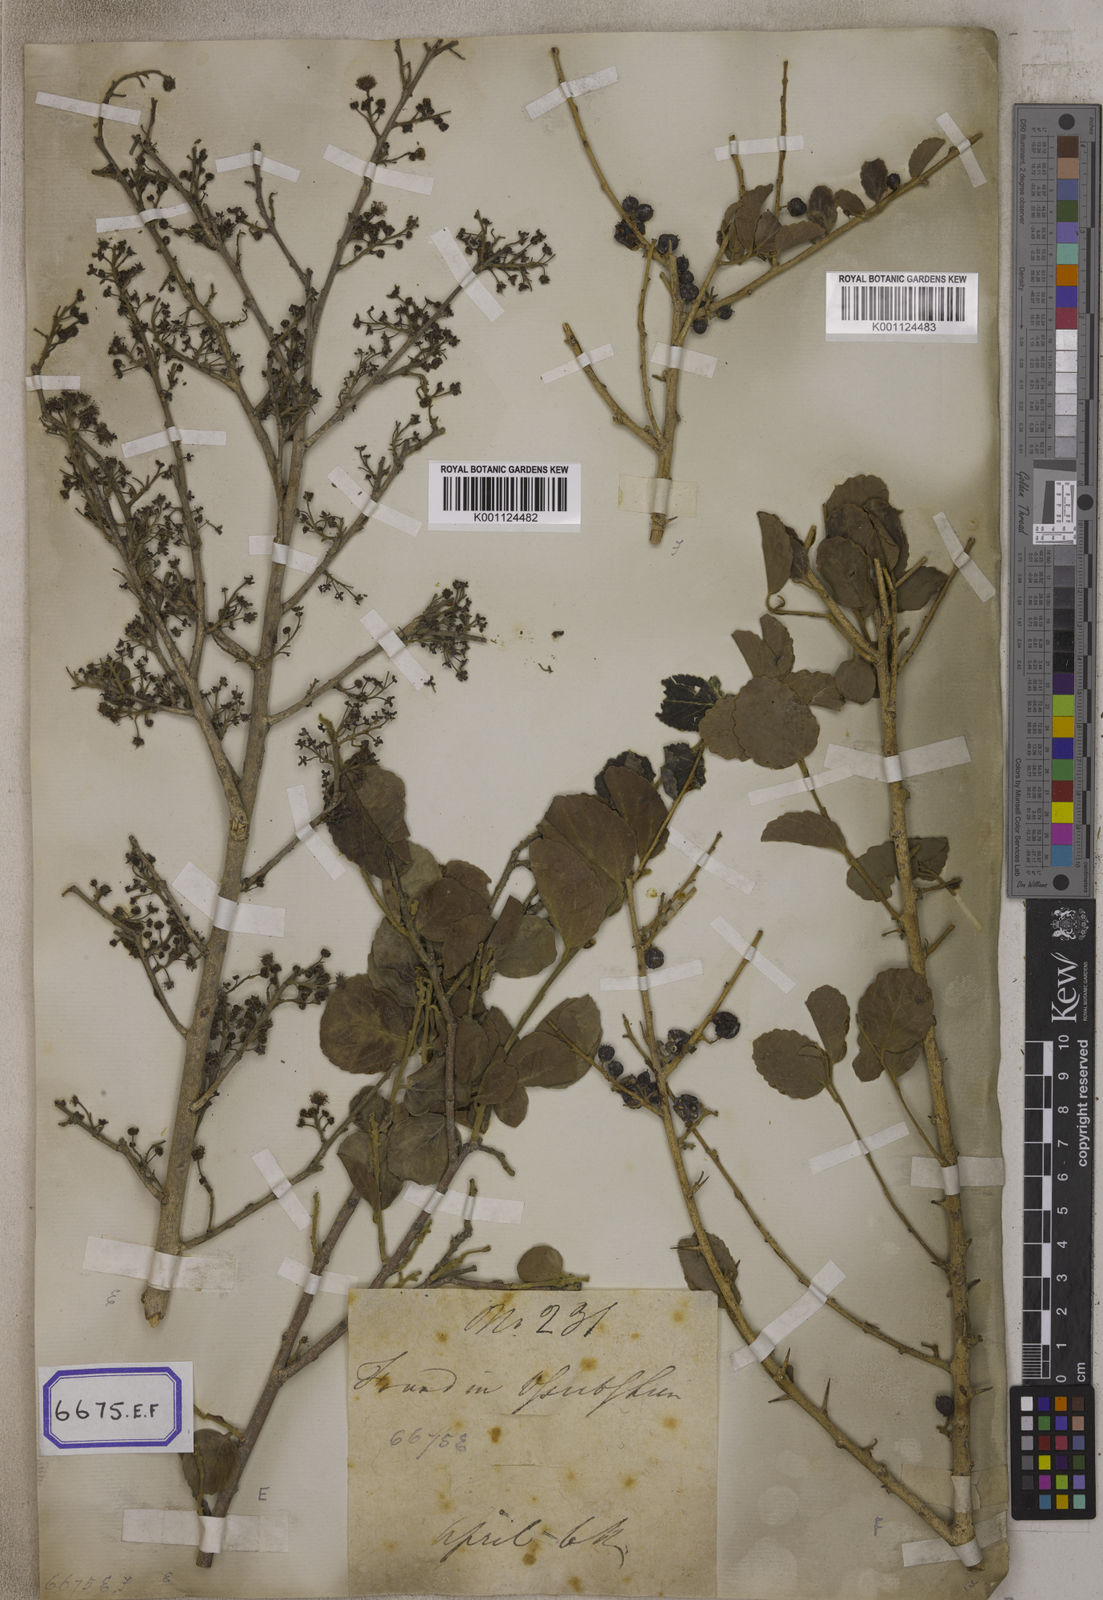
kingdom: Plantae
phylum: Tracheophyta
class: Magnoliopsida
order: Malpighiales
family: Salicaceae
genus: Flacourtia
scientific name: Flacourtia
